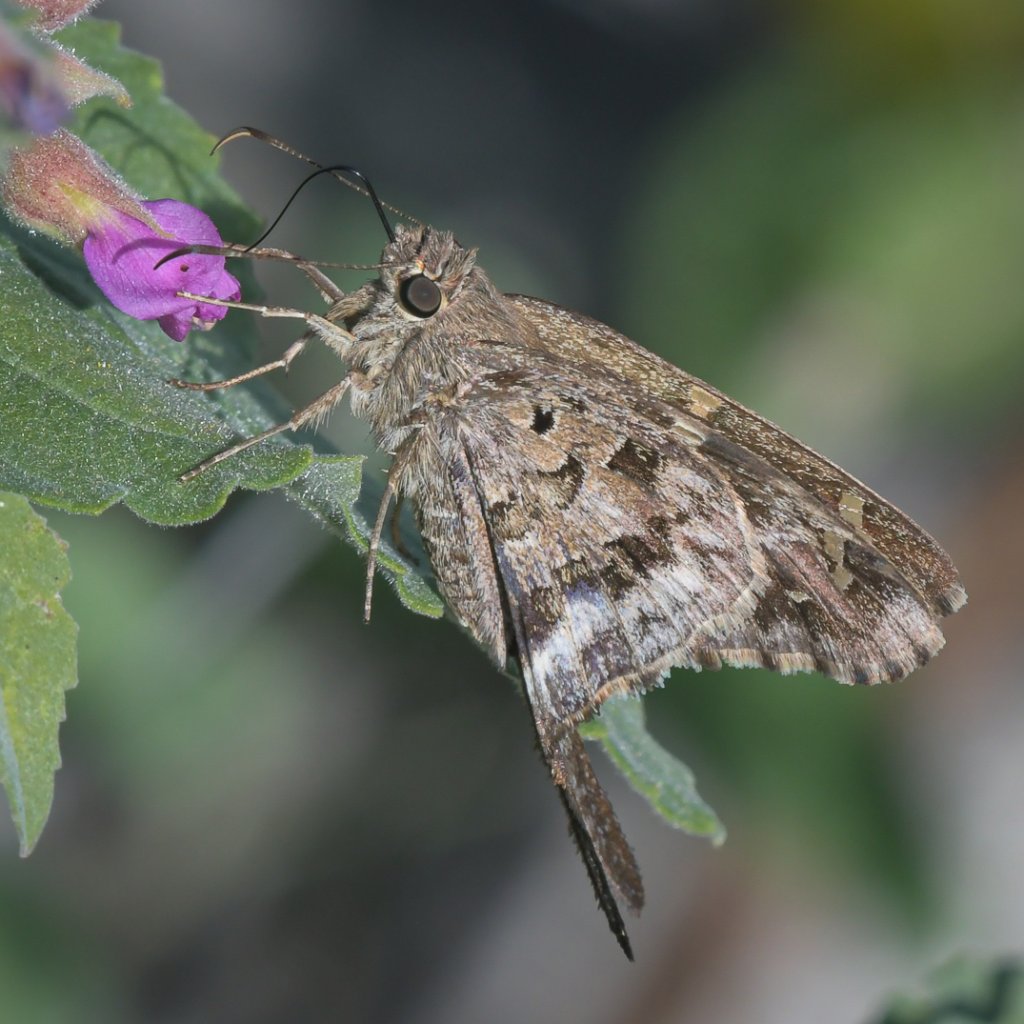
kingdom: Animalia
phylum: Arthropoda
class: Insecta
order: Lepidoptera
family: Hesperiidae
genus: Urbanus
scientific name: Urbanus dorantes
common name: Dorantes Longtail
